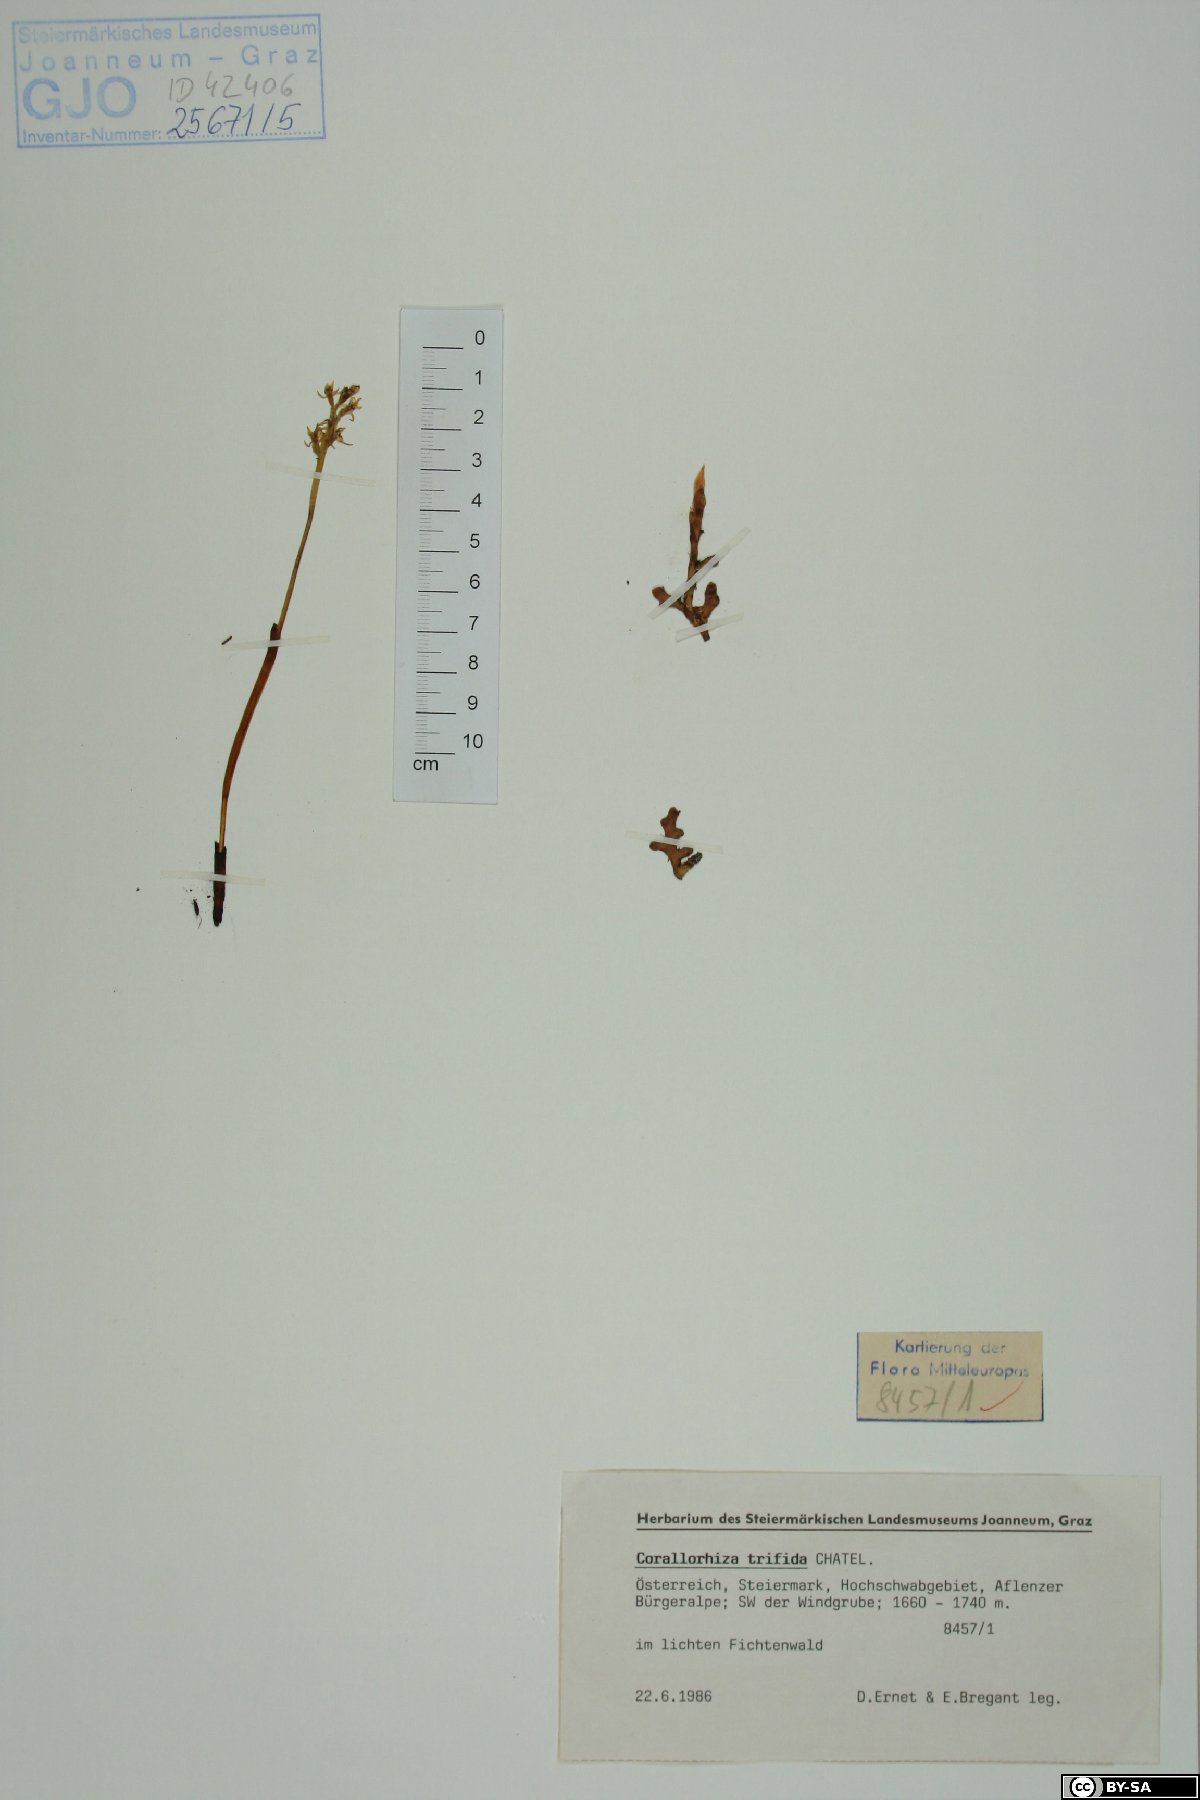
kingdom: Plantae
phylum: Tracheophyta
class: Liliopsida
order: Asparagales
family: Orchidaceae
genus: Corallorhiza
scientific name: Corallorhiza trifida
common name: Yellow coralroot
